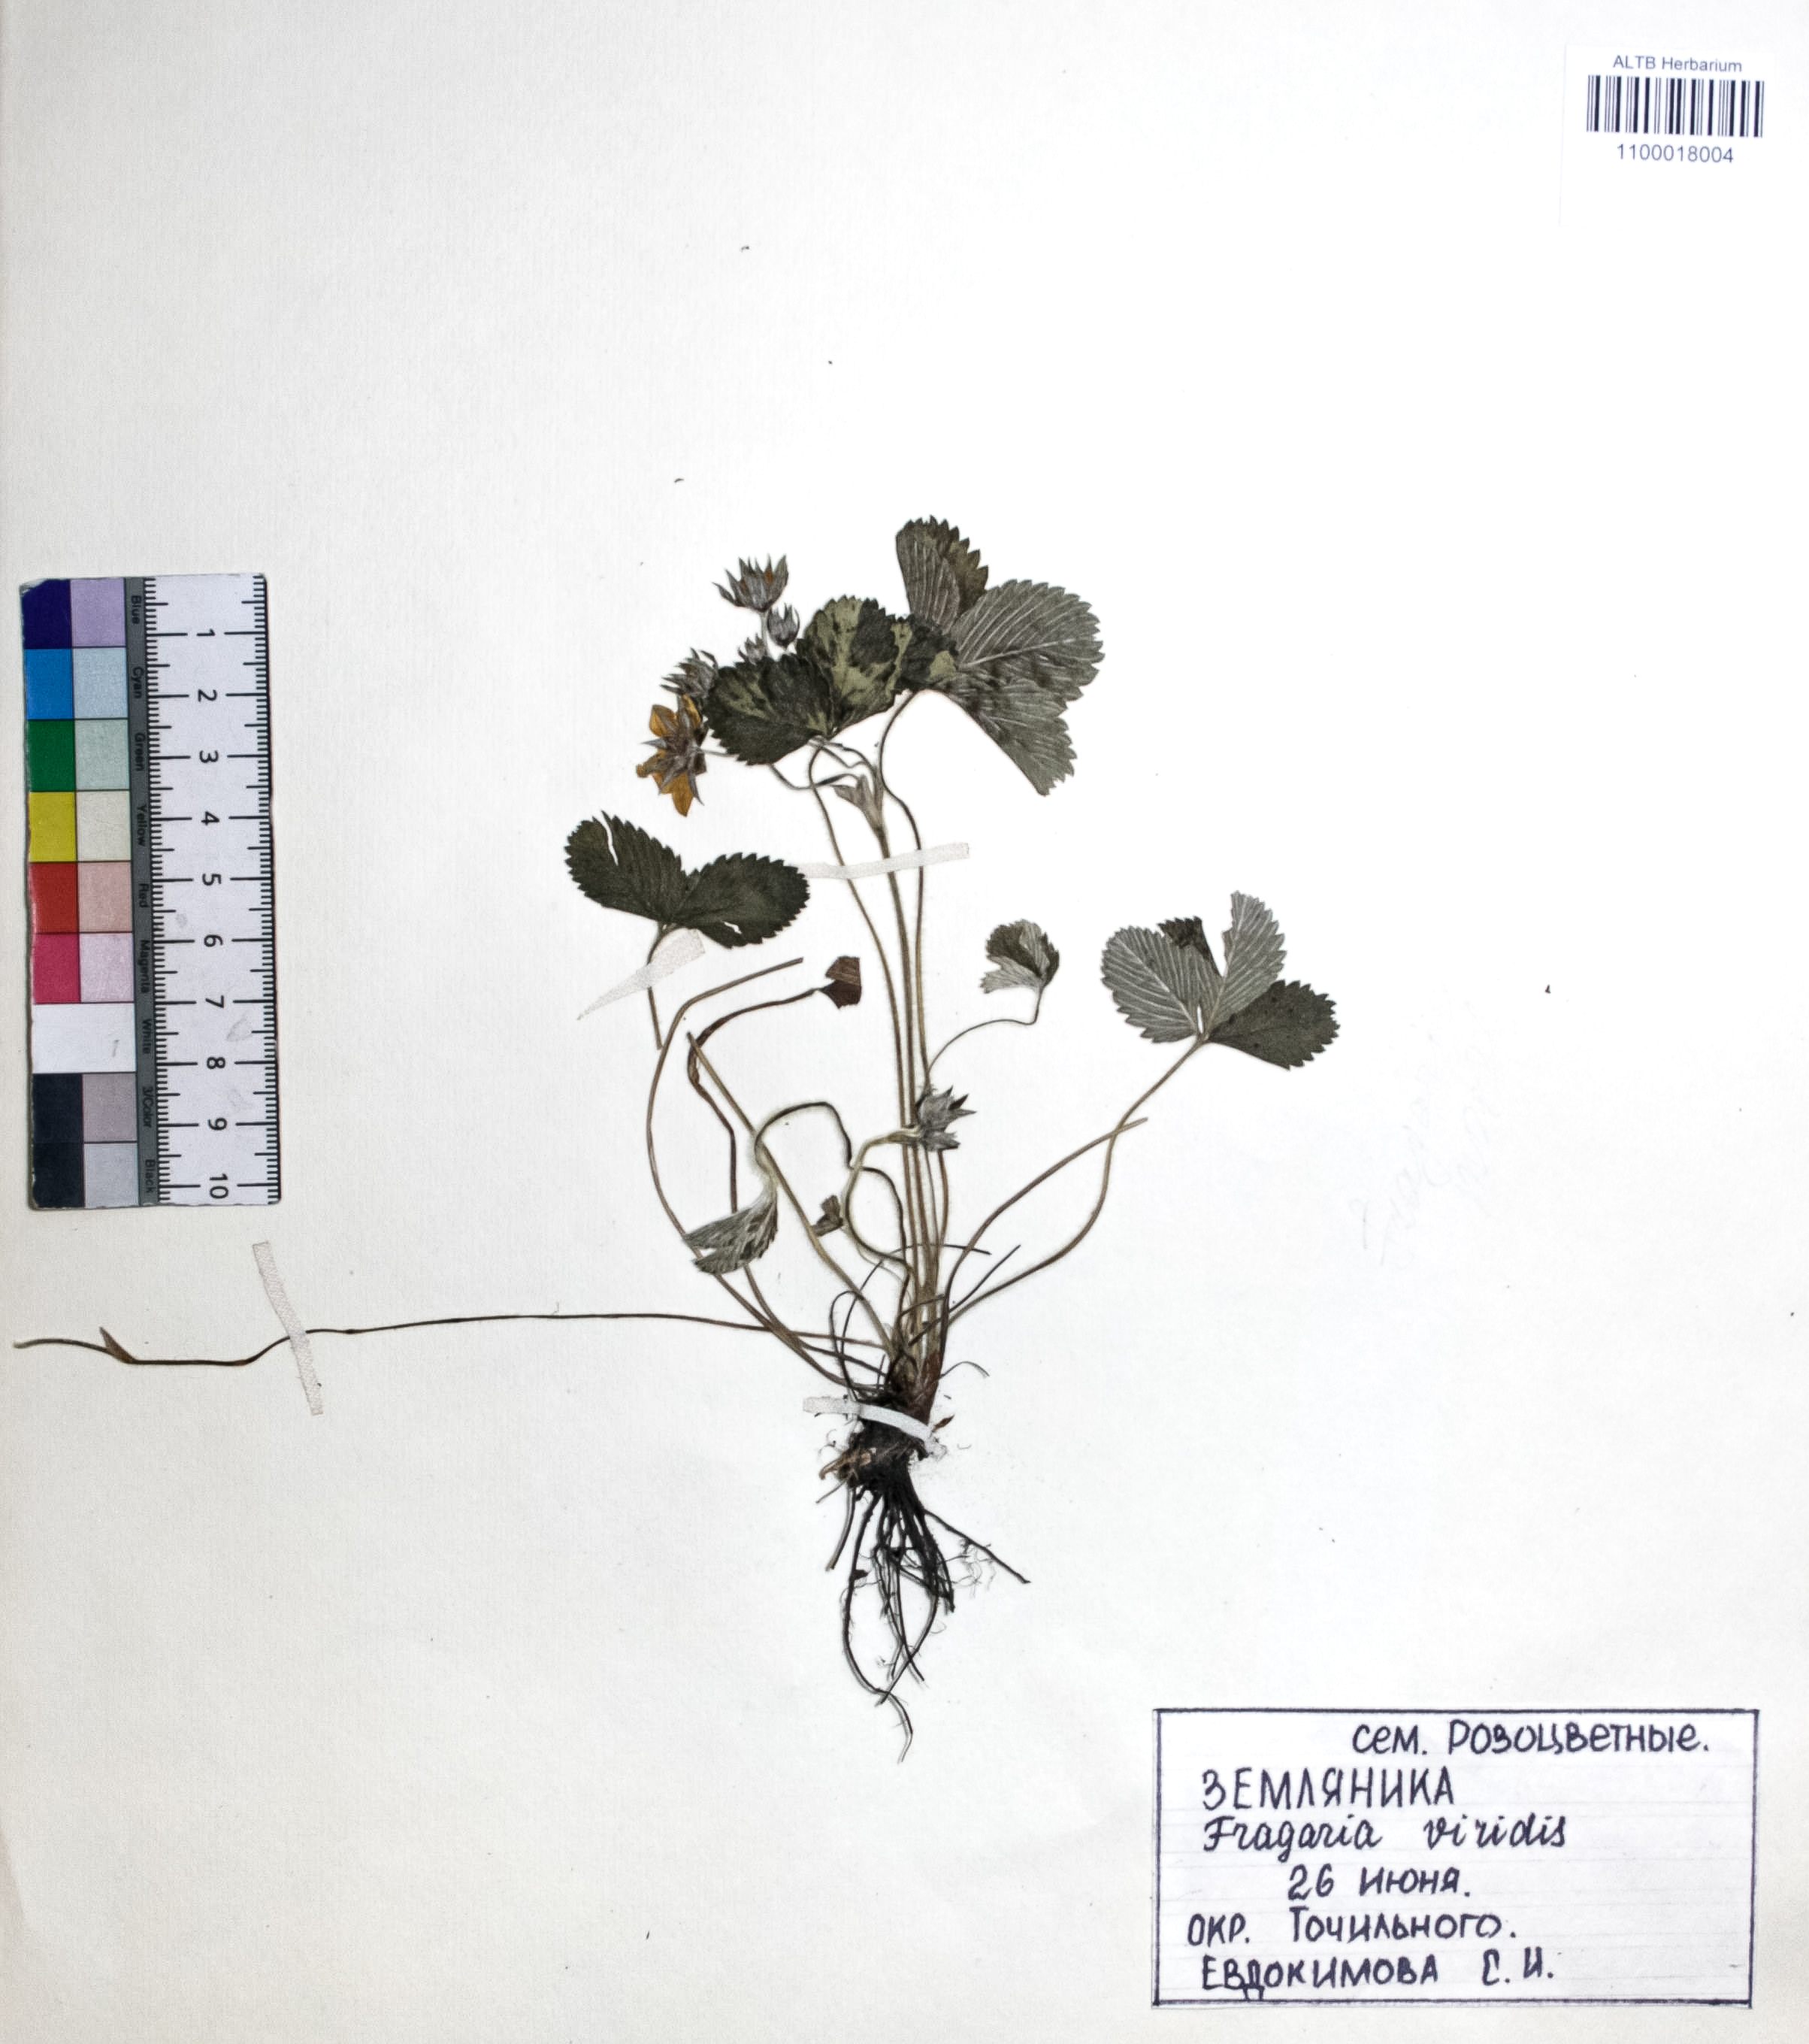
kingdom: Plantae
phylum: Tracheophyta
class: Magnoliopsida
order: Rosales
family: Rosaceae
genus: Fragaria
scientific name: Fragaria viridis
